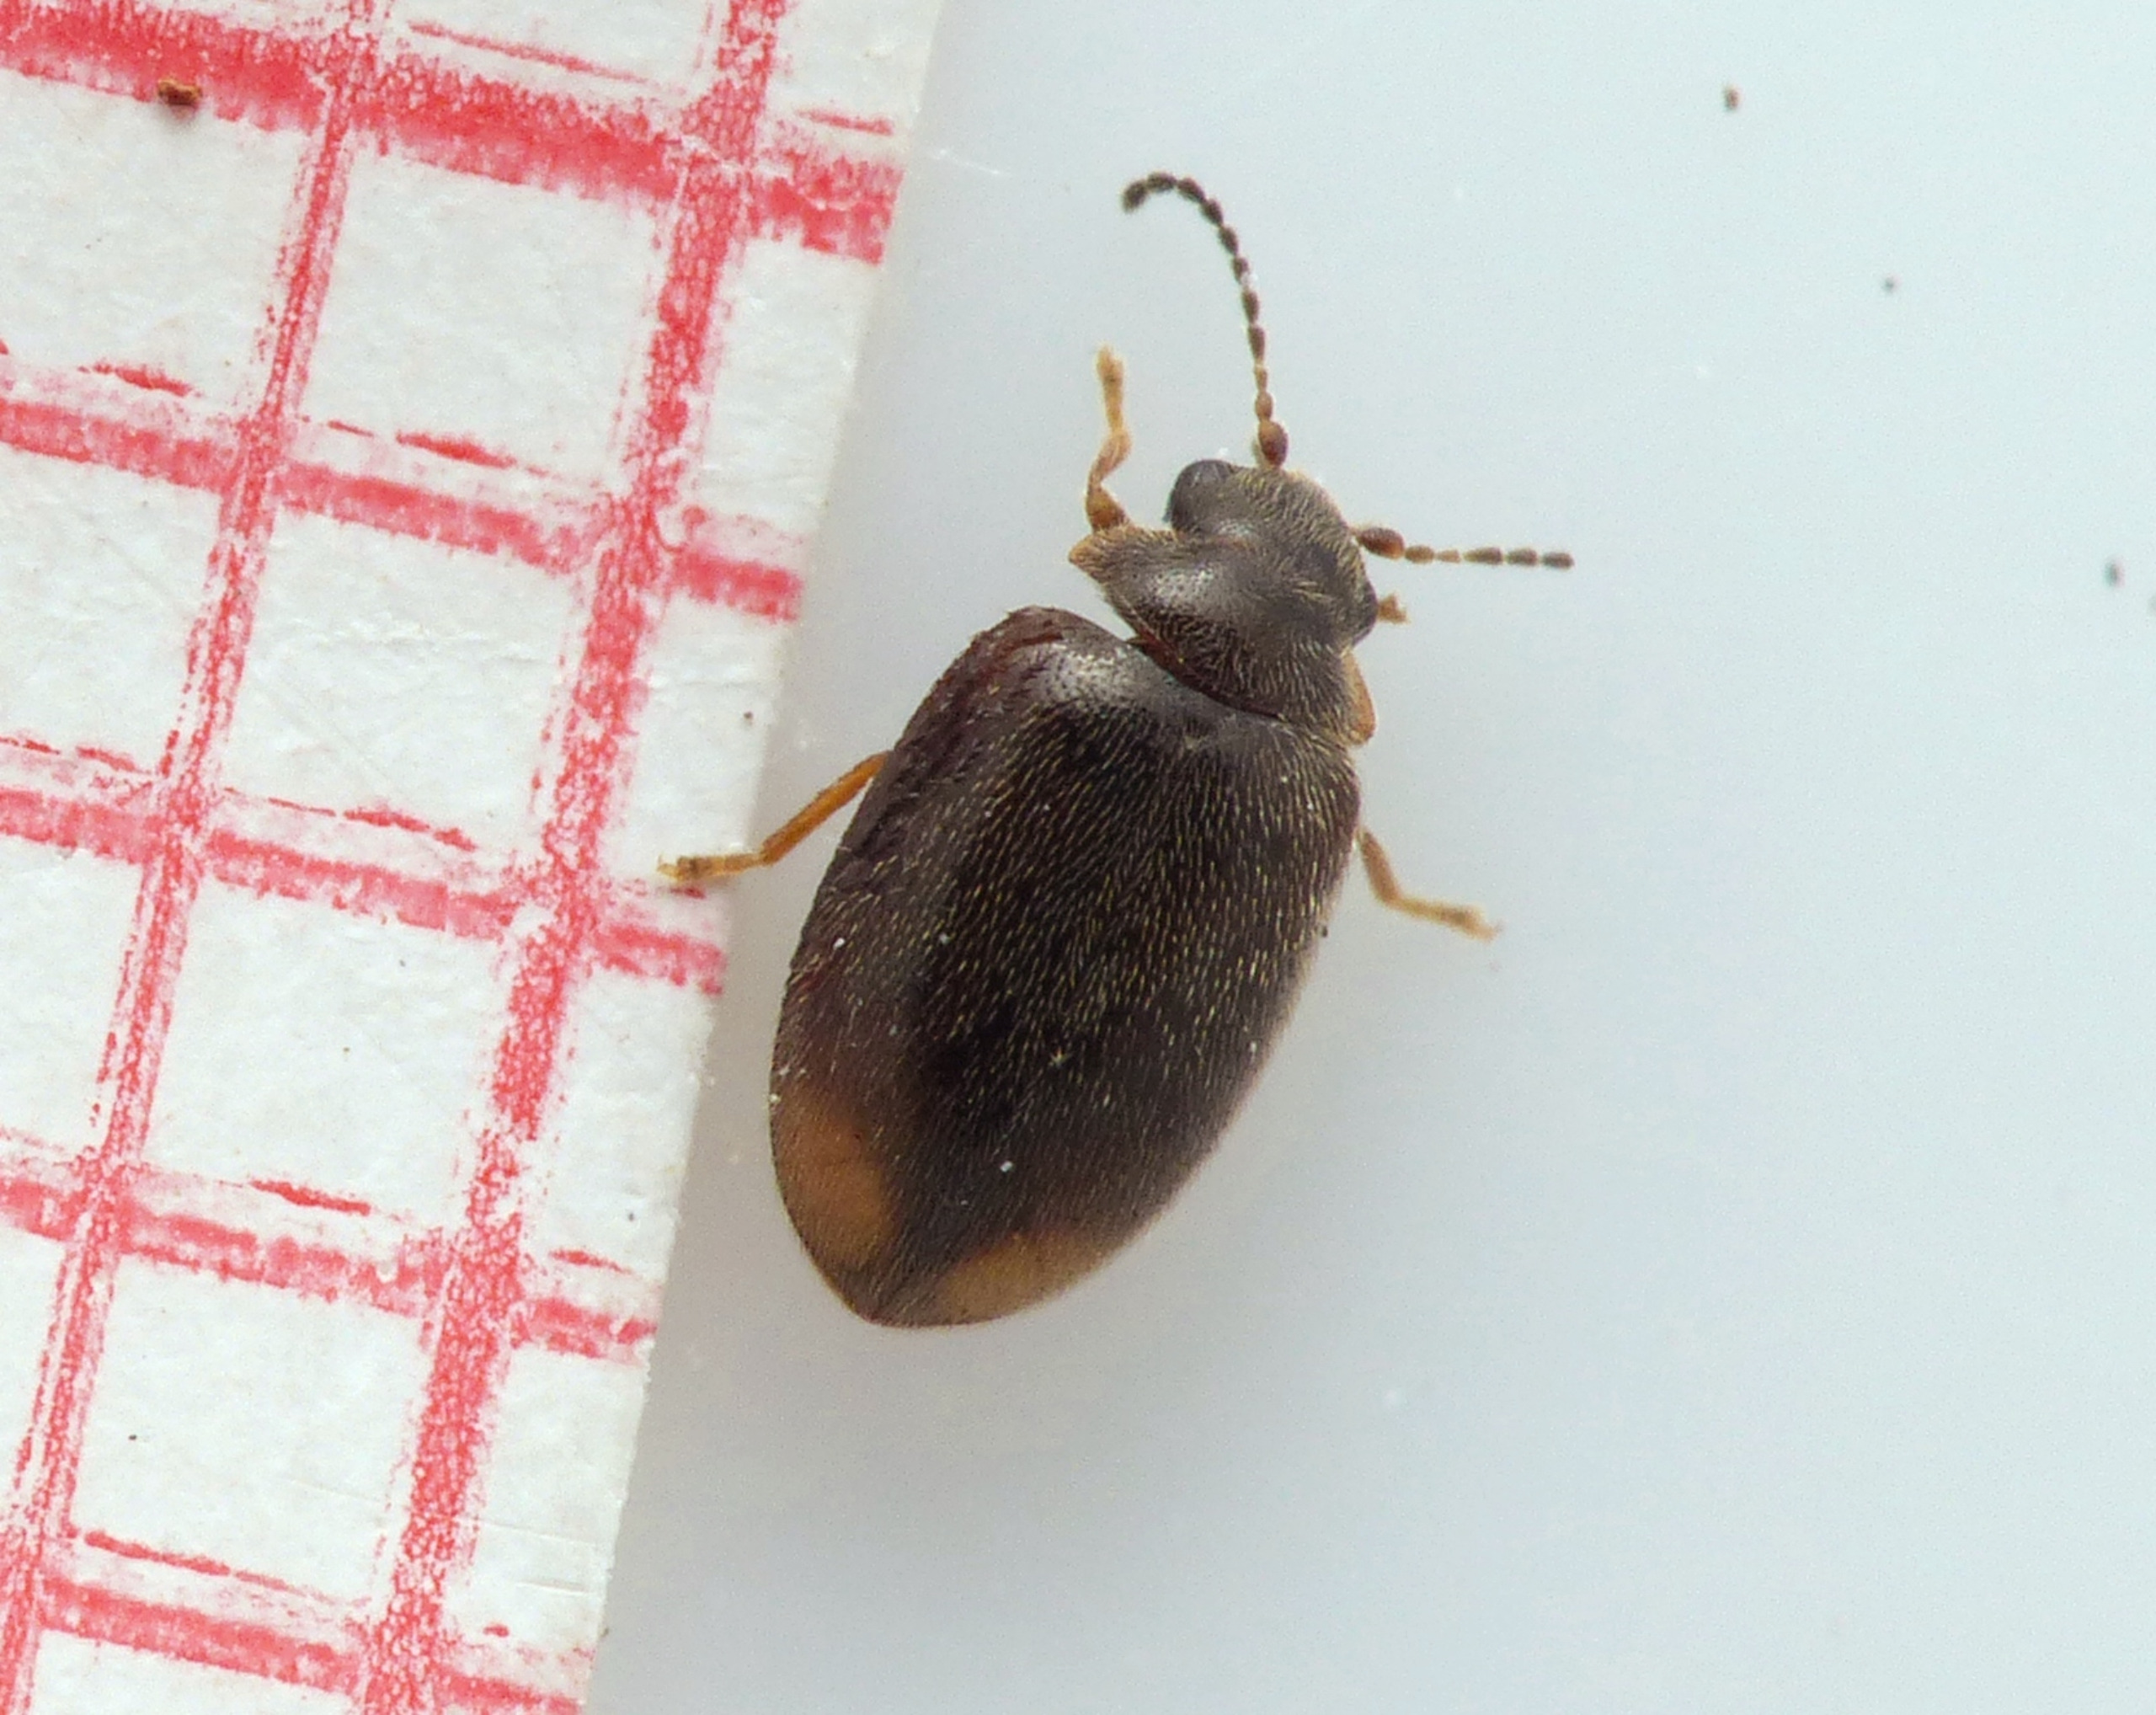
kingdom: Animalia
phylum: Arthropoda
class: Insecta
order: Coleoptera
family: Scirtidae
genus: Cyphon
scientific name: Cyphon padi
